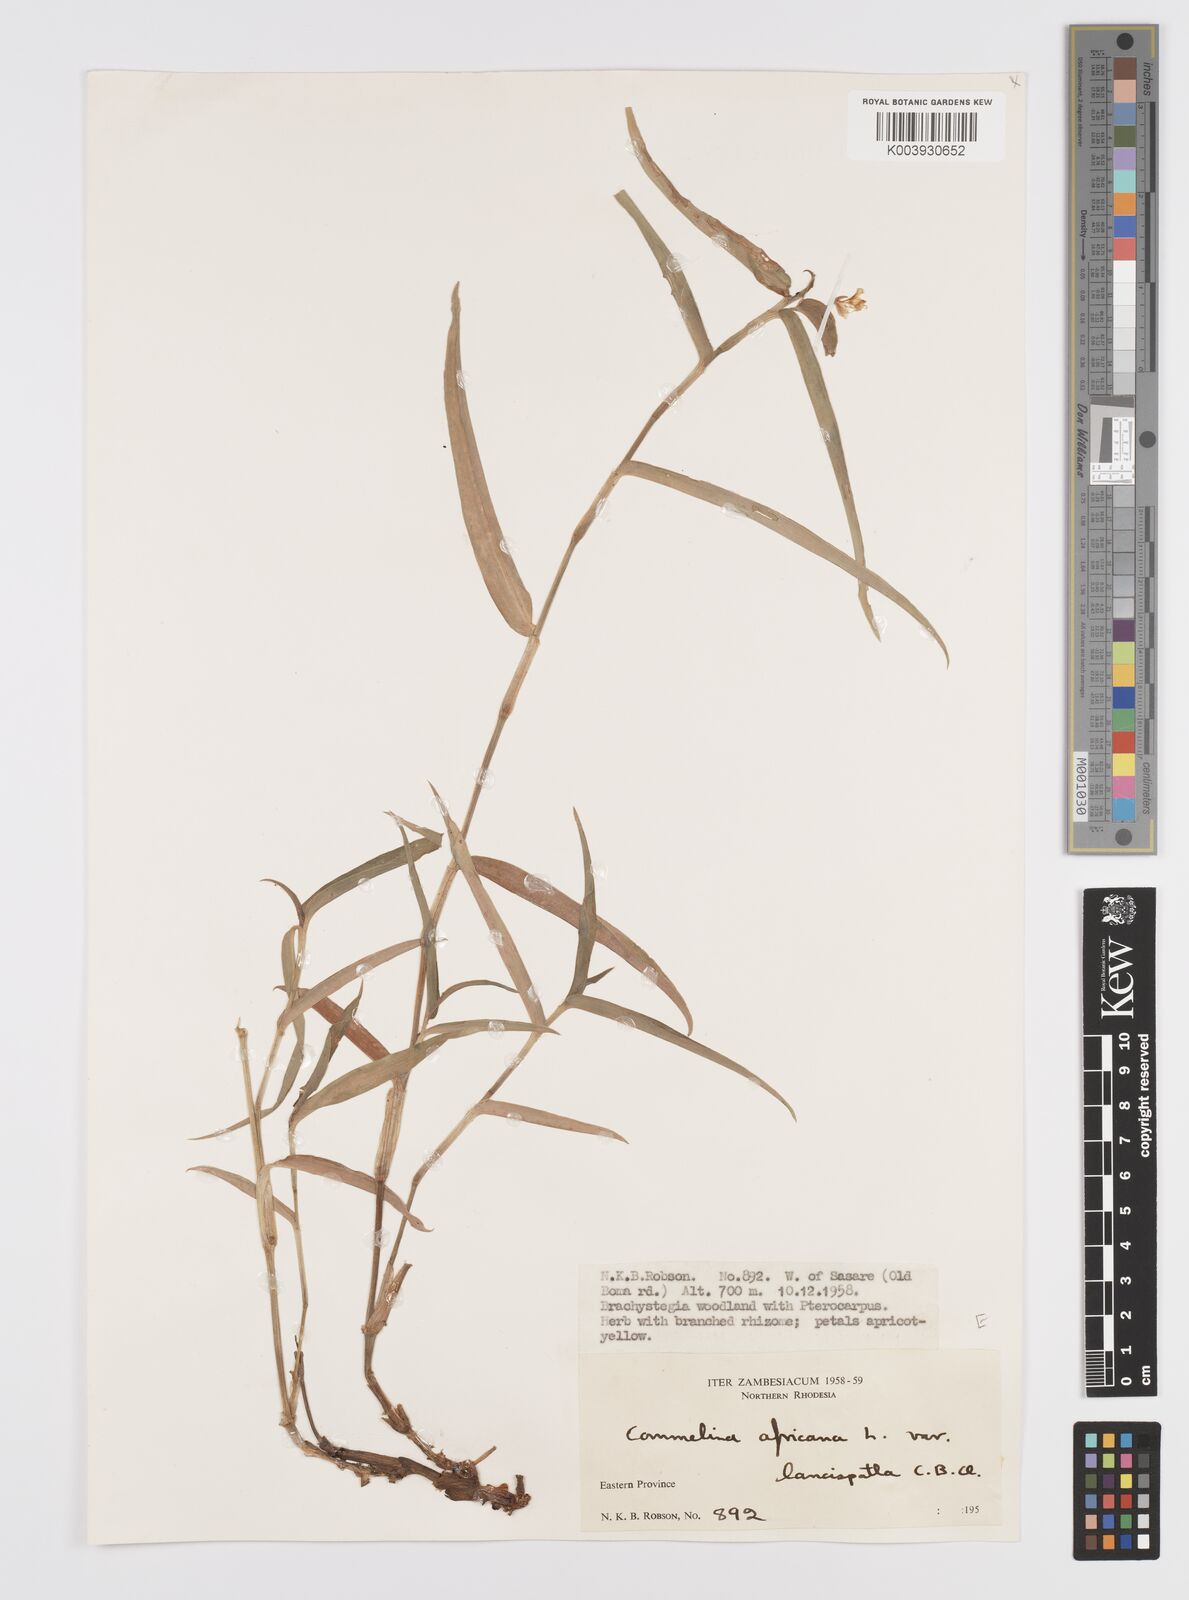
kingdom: Plantae
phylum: Tracheophyta
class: Liliopsida
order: Commelinales
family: Commelinaceae
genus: Commelina
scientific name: Commelina africana
